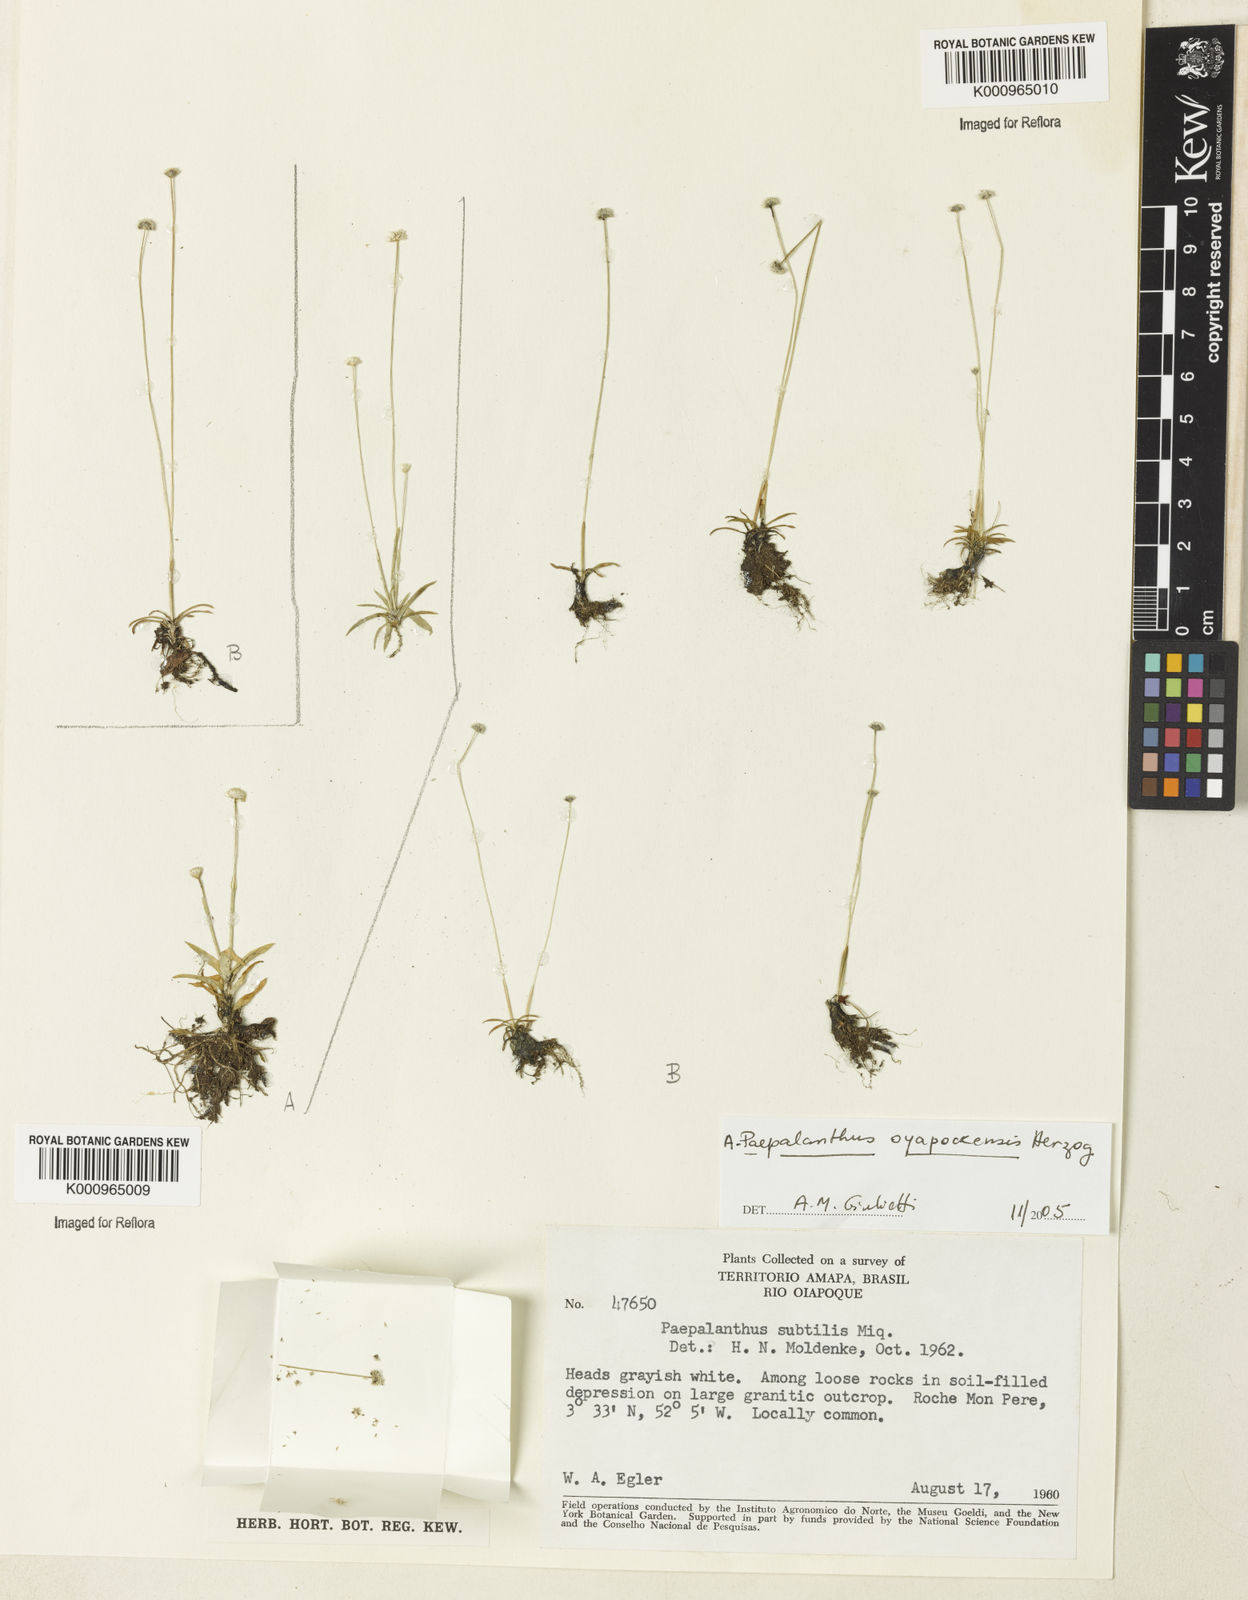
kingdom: Plantae
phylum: Tracheophyta
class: Liliopsida
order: Poales
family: Eriocaulaceae
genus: Paepalanthus
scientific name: Paepalanthus subtilis
